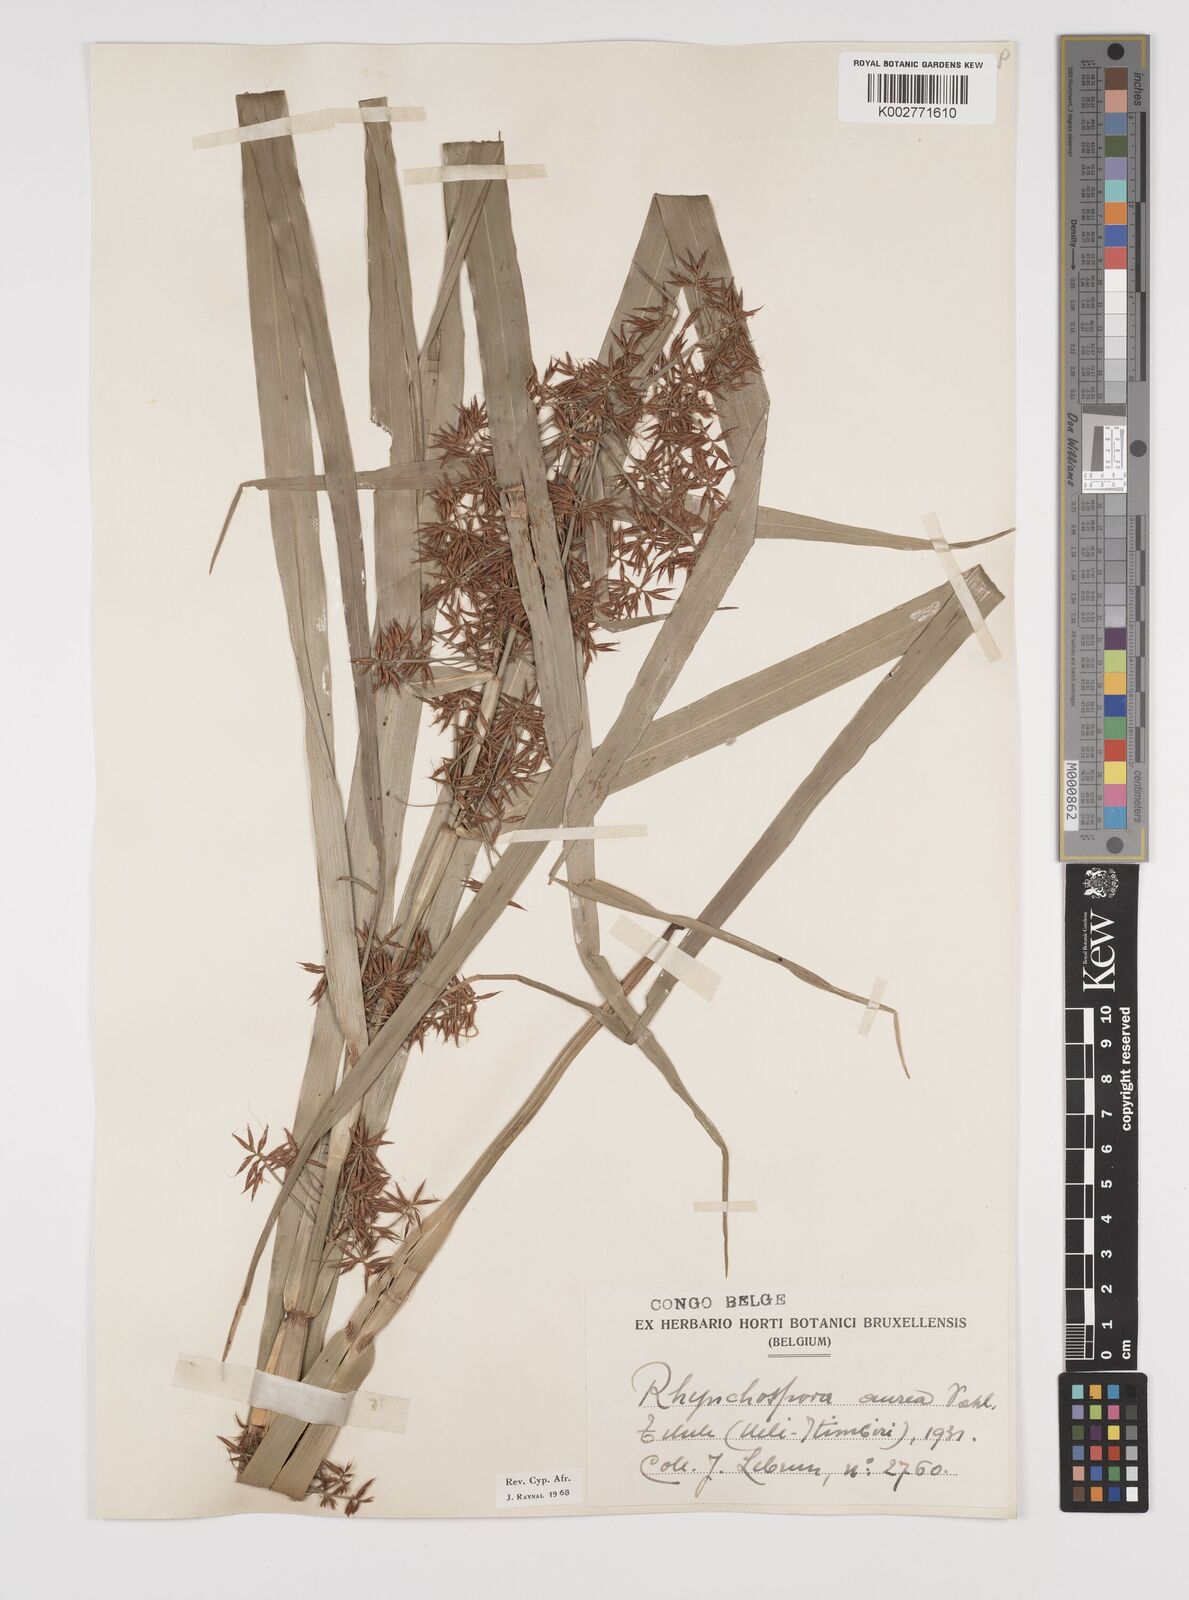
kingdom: Plantae
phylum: Tracheophyta
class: Liliopsida
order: Poales
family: Cyperaceae
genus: Rhynchospora
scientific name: Rhynchospora corymbosa
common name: Golden beak sedge
